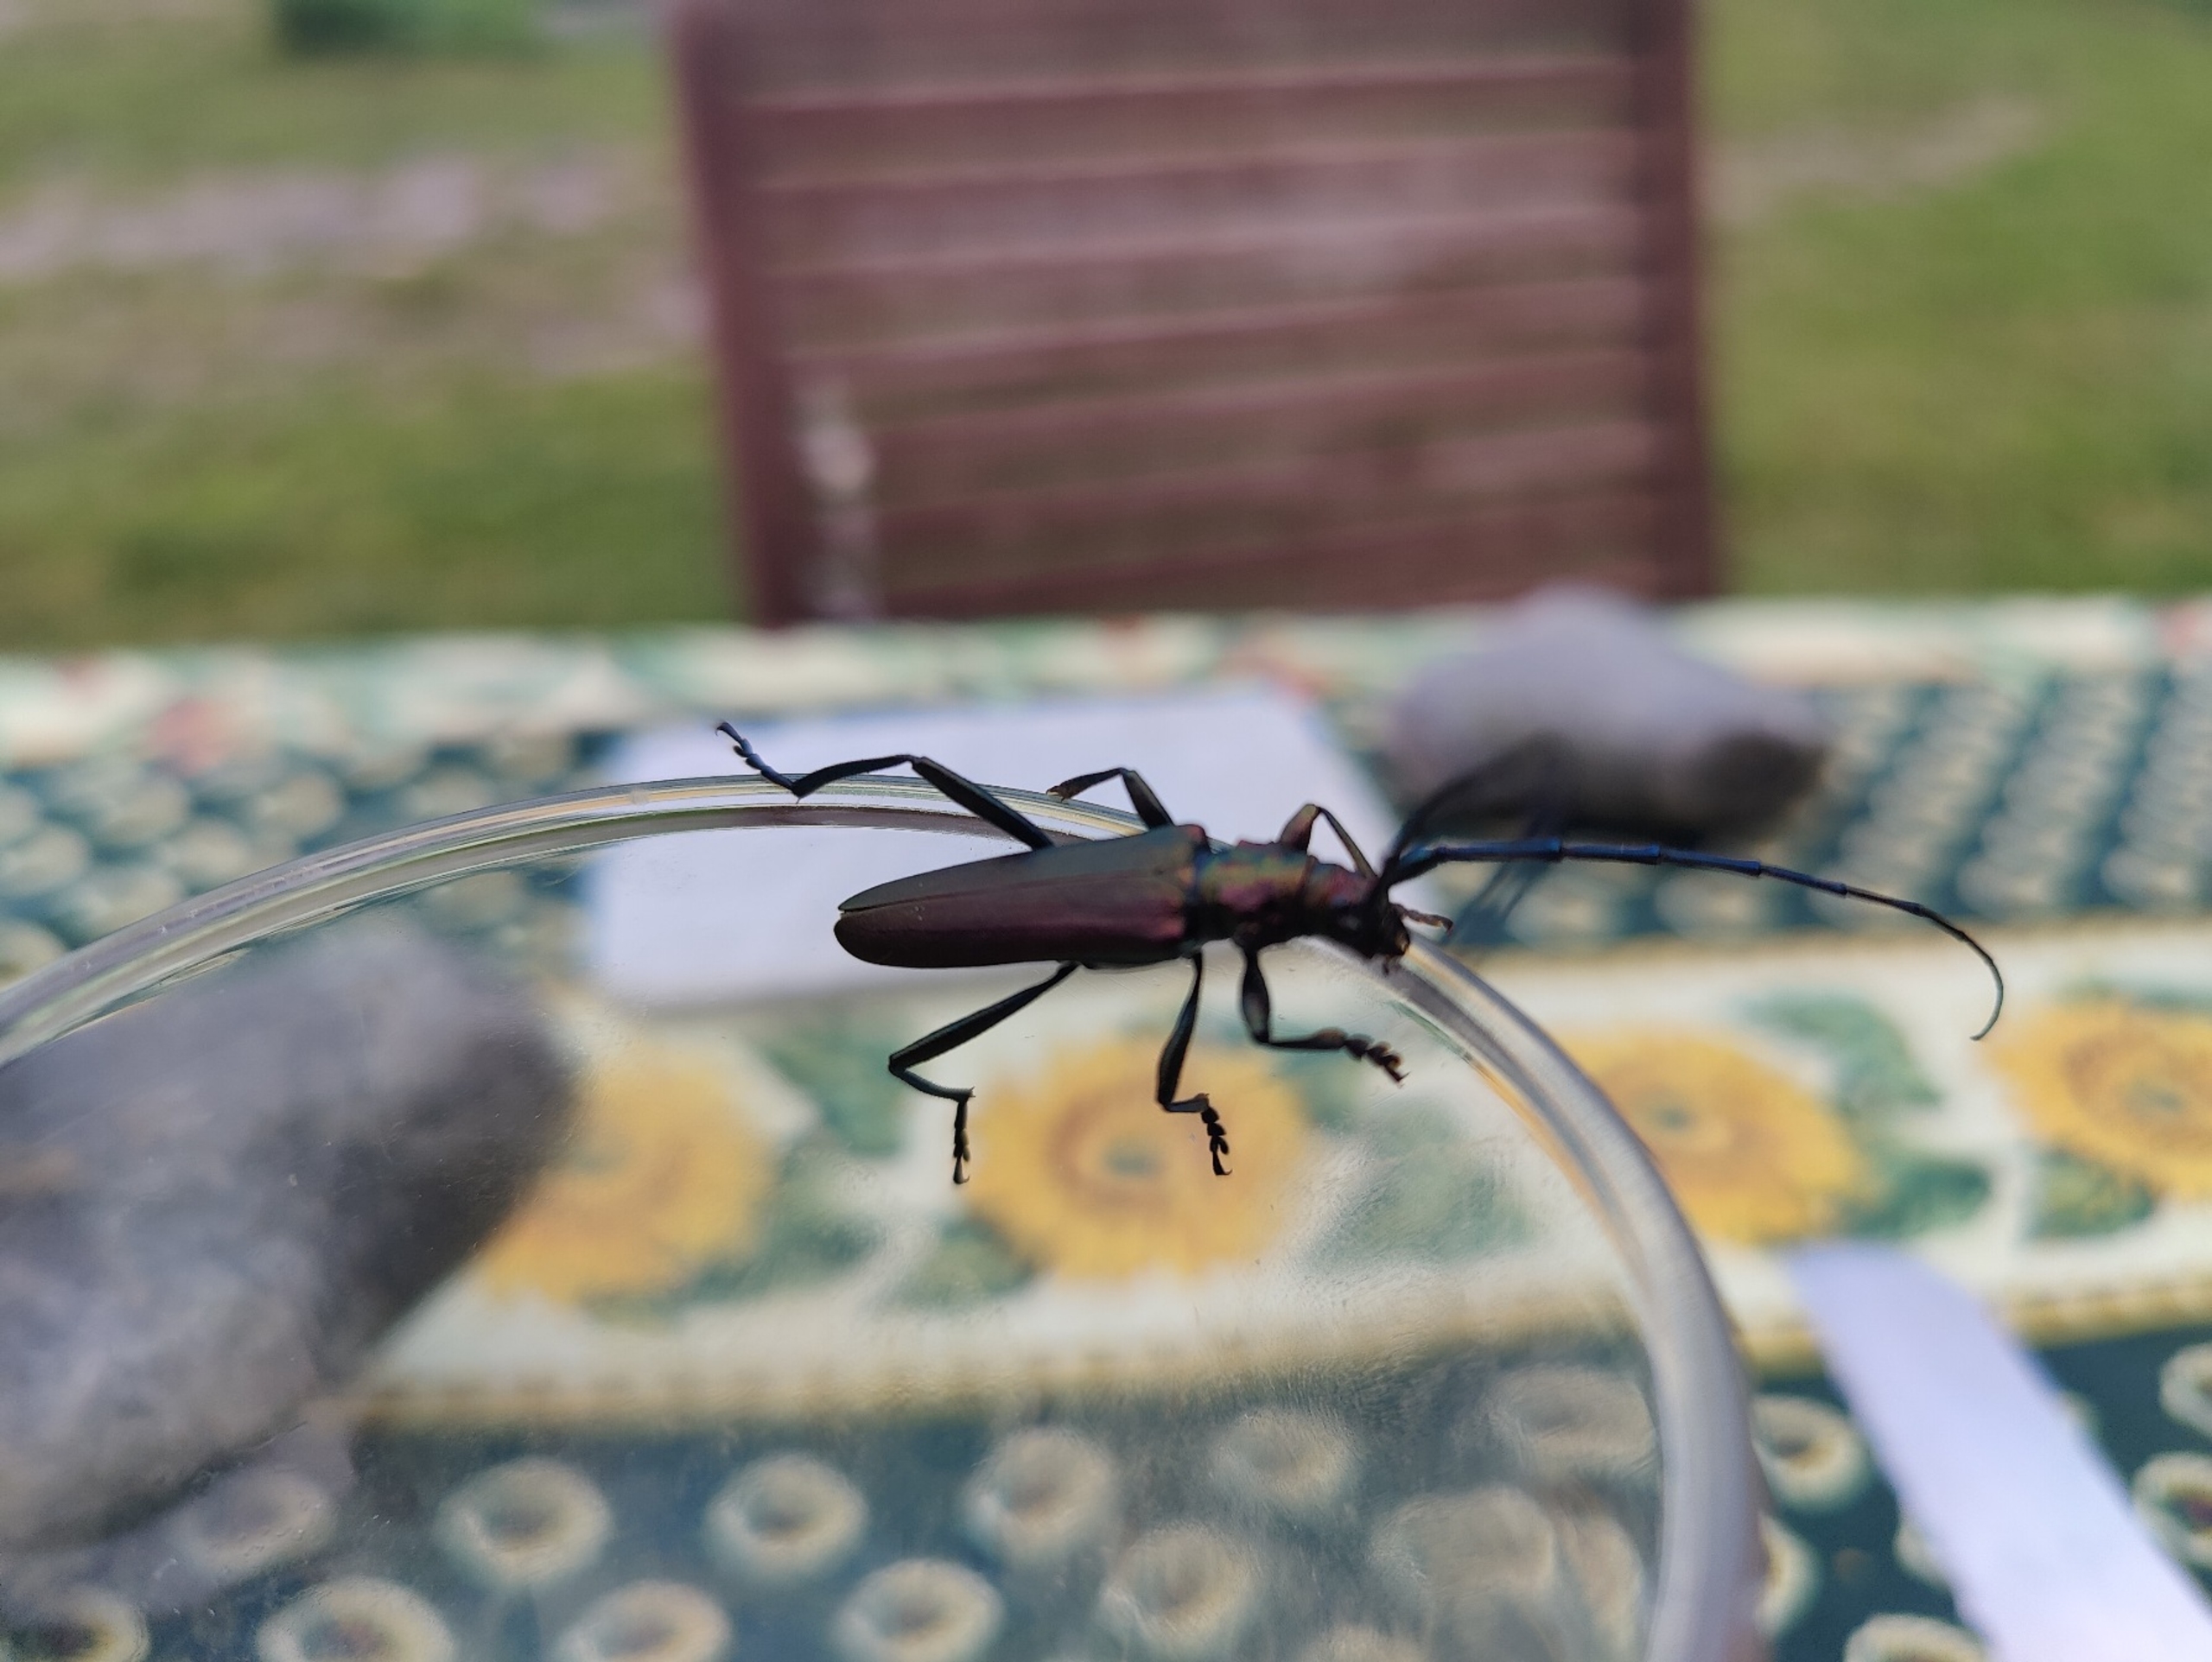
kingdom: Animalia
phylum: Arthropoda
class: Insecta
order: Coleoptera
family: Cerambycidae
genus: Aromia
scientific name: Aromia moschata
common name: Moskusbuk
